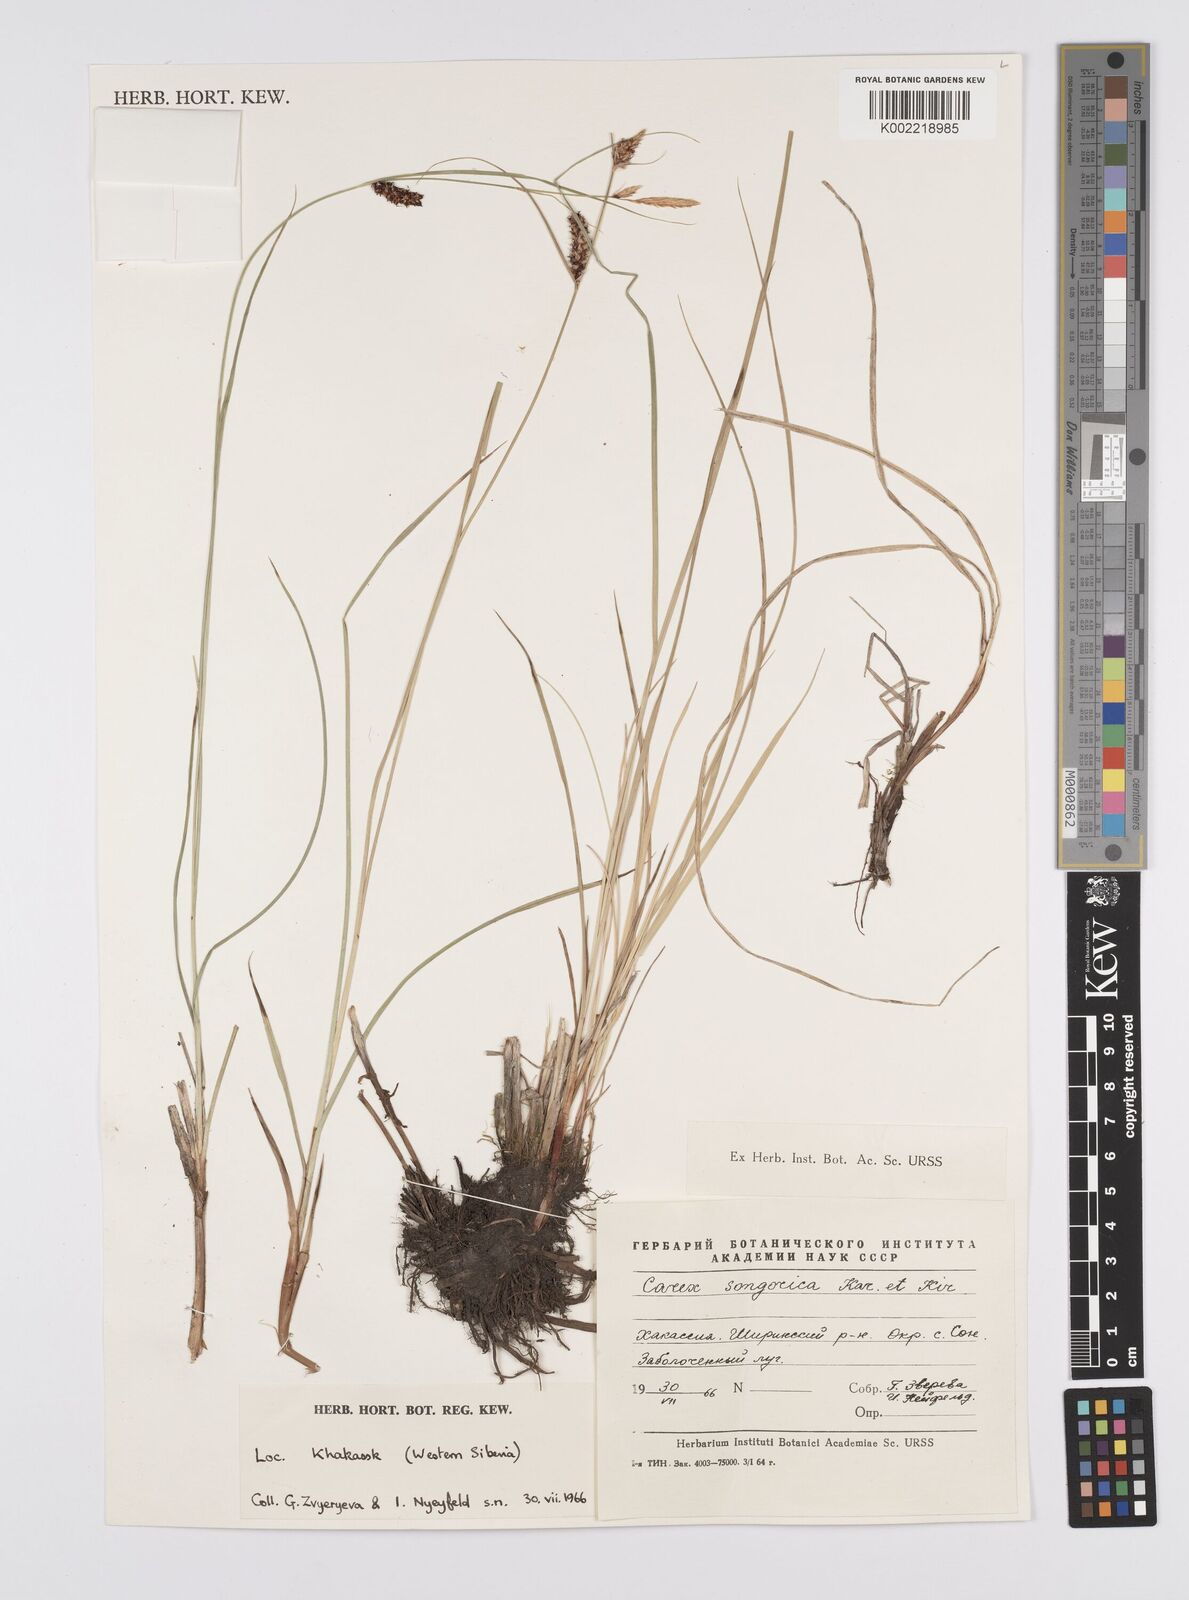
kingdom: Plantae
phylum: Tracheophyta
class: Liliopsida
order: Poales
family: Cyperaceae
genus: Carex
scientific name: Carex heterostachya
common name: Different-spike sedge
